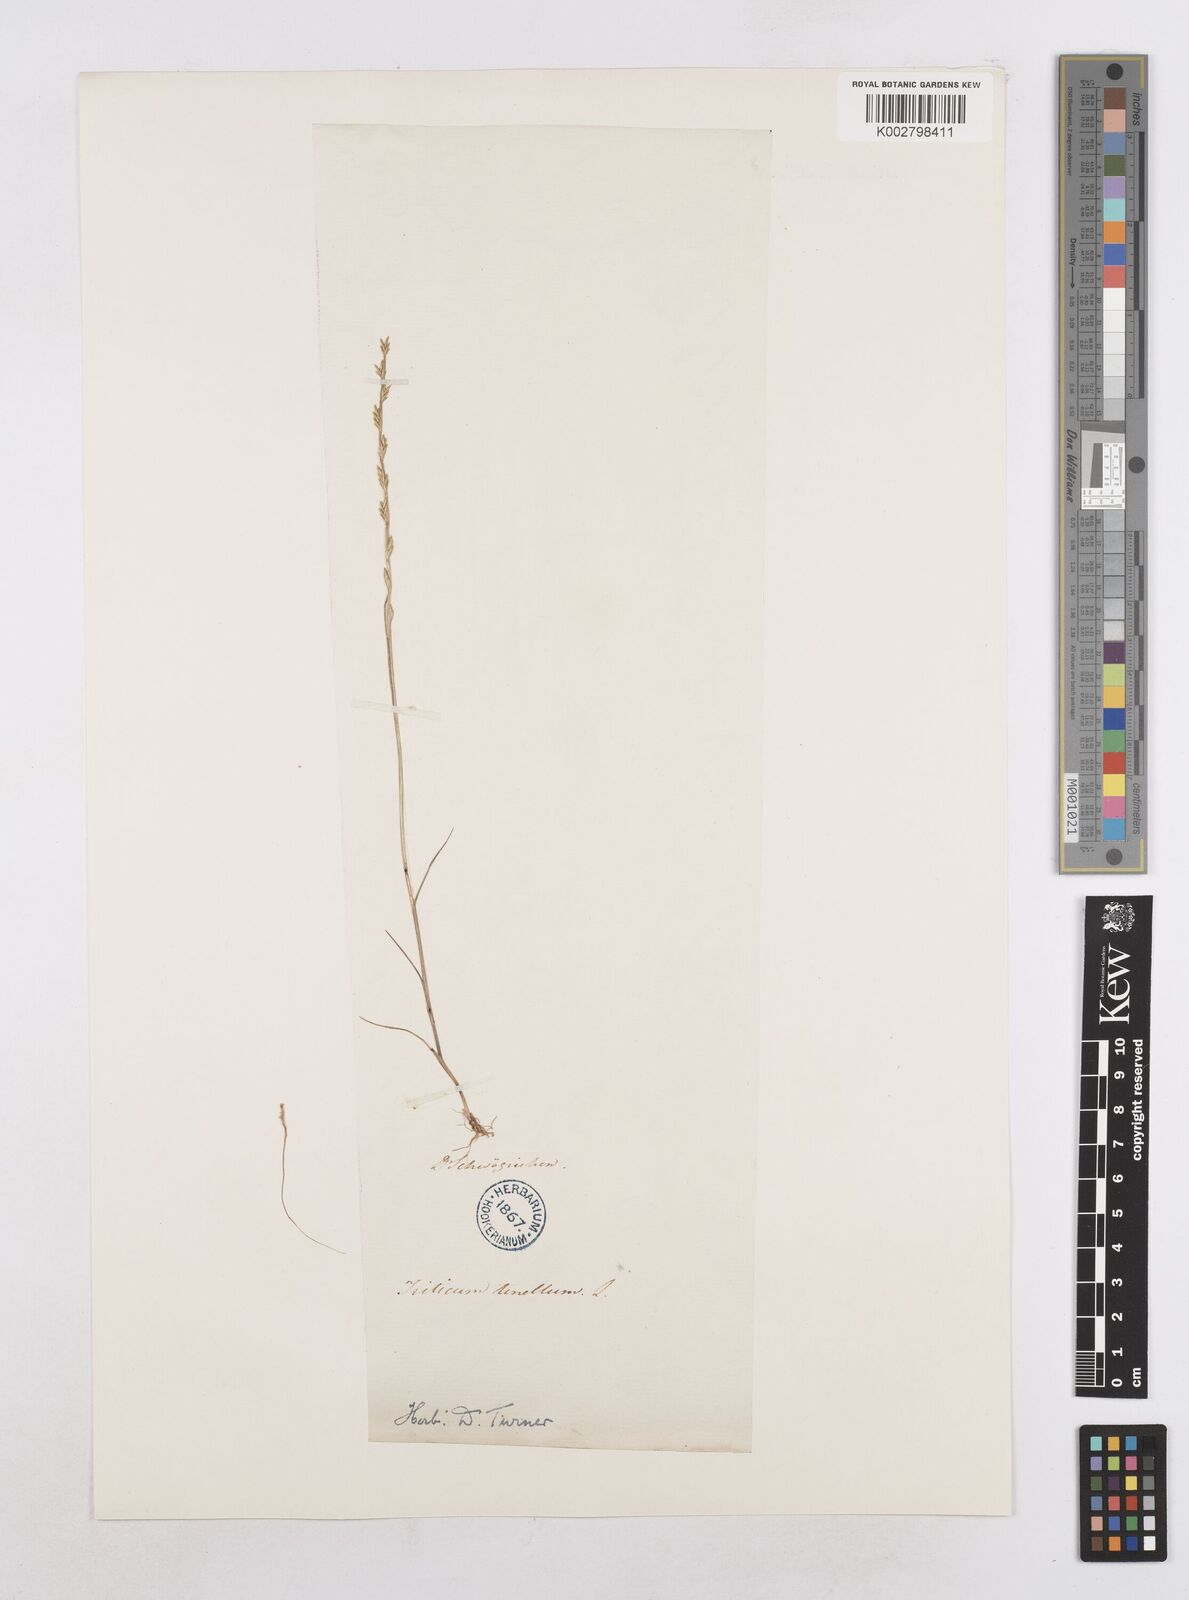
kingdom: Plantae
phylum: Tracheophyta
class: Liliopsida
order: Poales
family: Poaceae
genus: Festuca
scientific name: Festuca lachenalii
